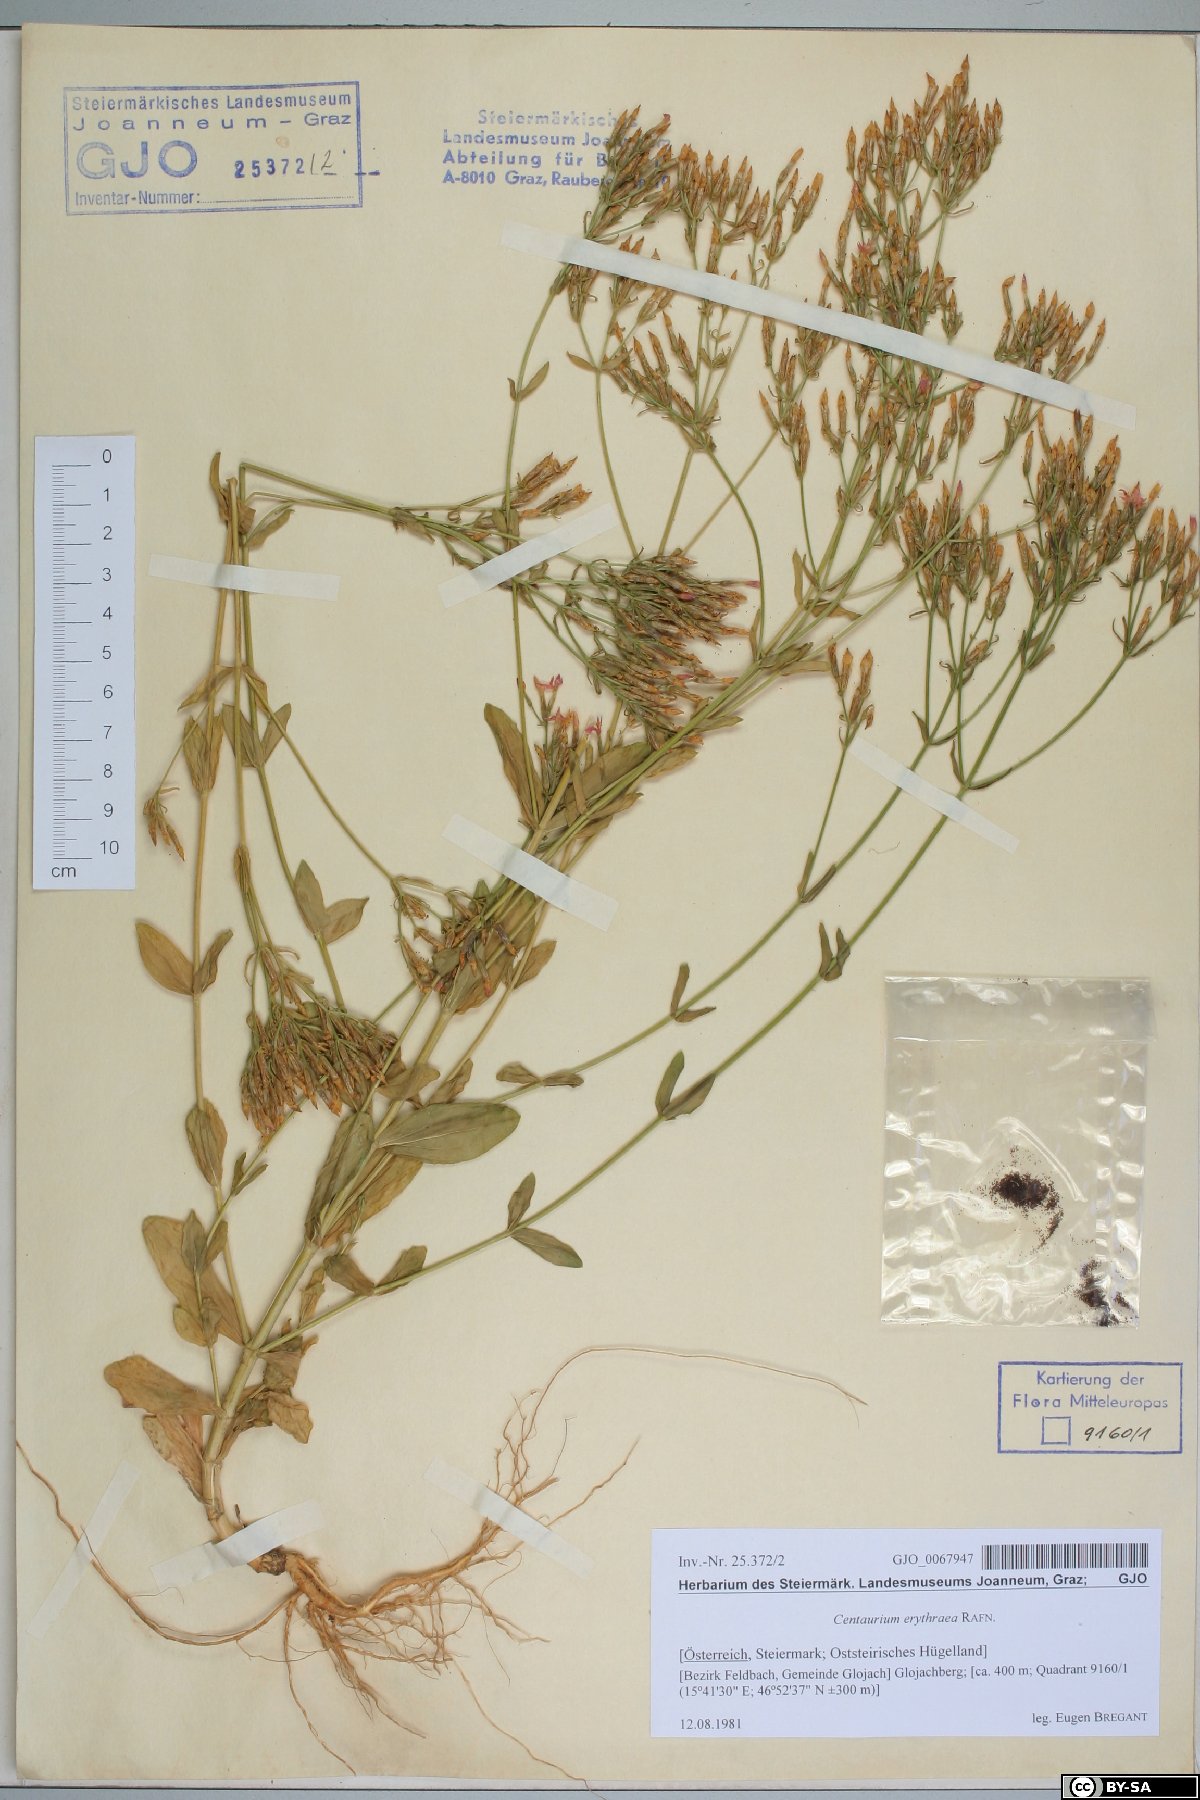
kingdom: Plantae
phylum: Tracheophyta
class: Magnoliopsida
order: Gentianales
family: Gentianaceae
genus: Centaurium
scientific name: Centaurium erythraea
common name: Common centaury
